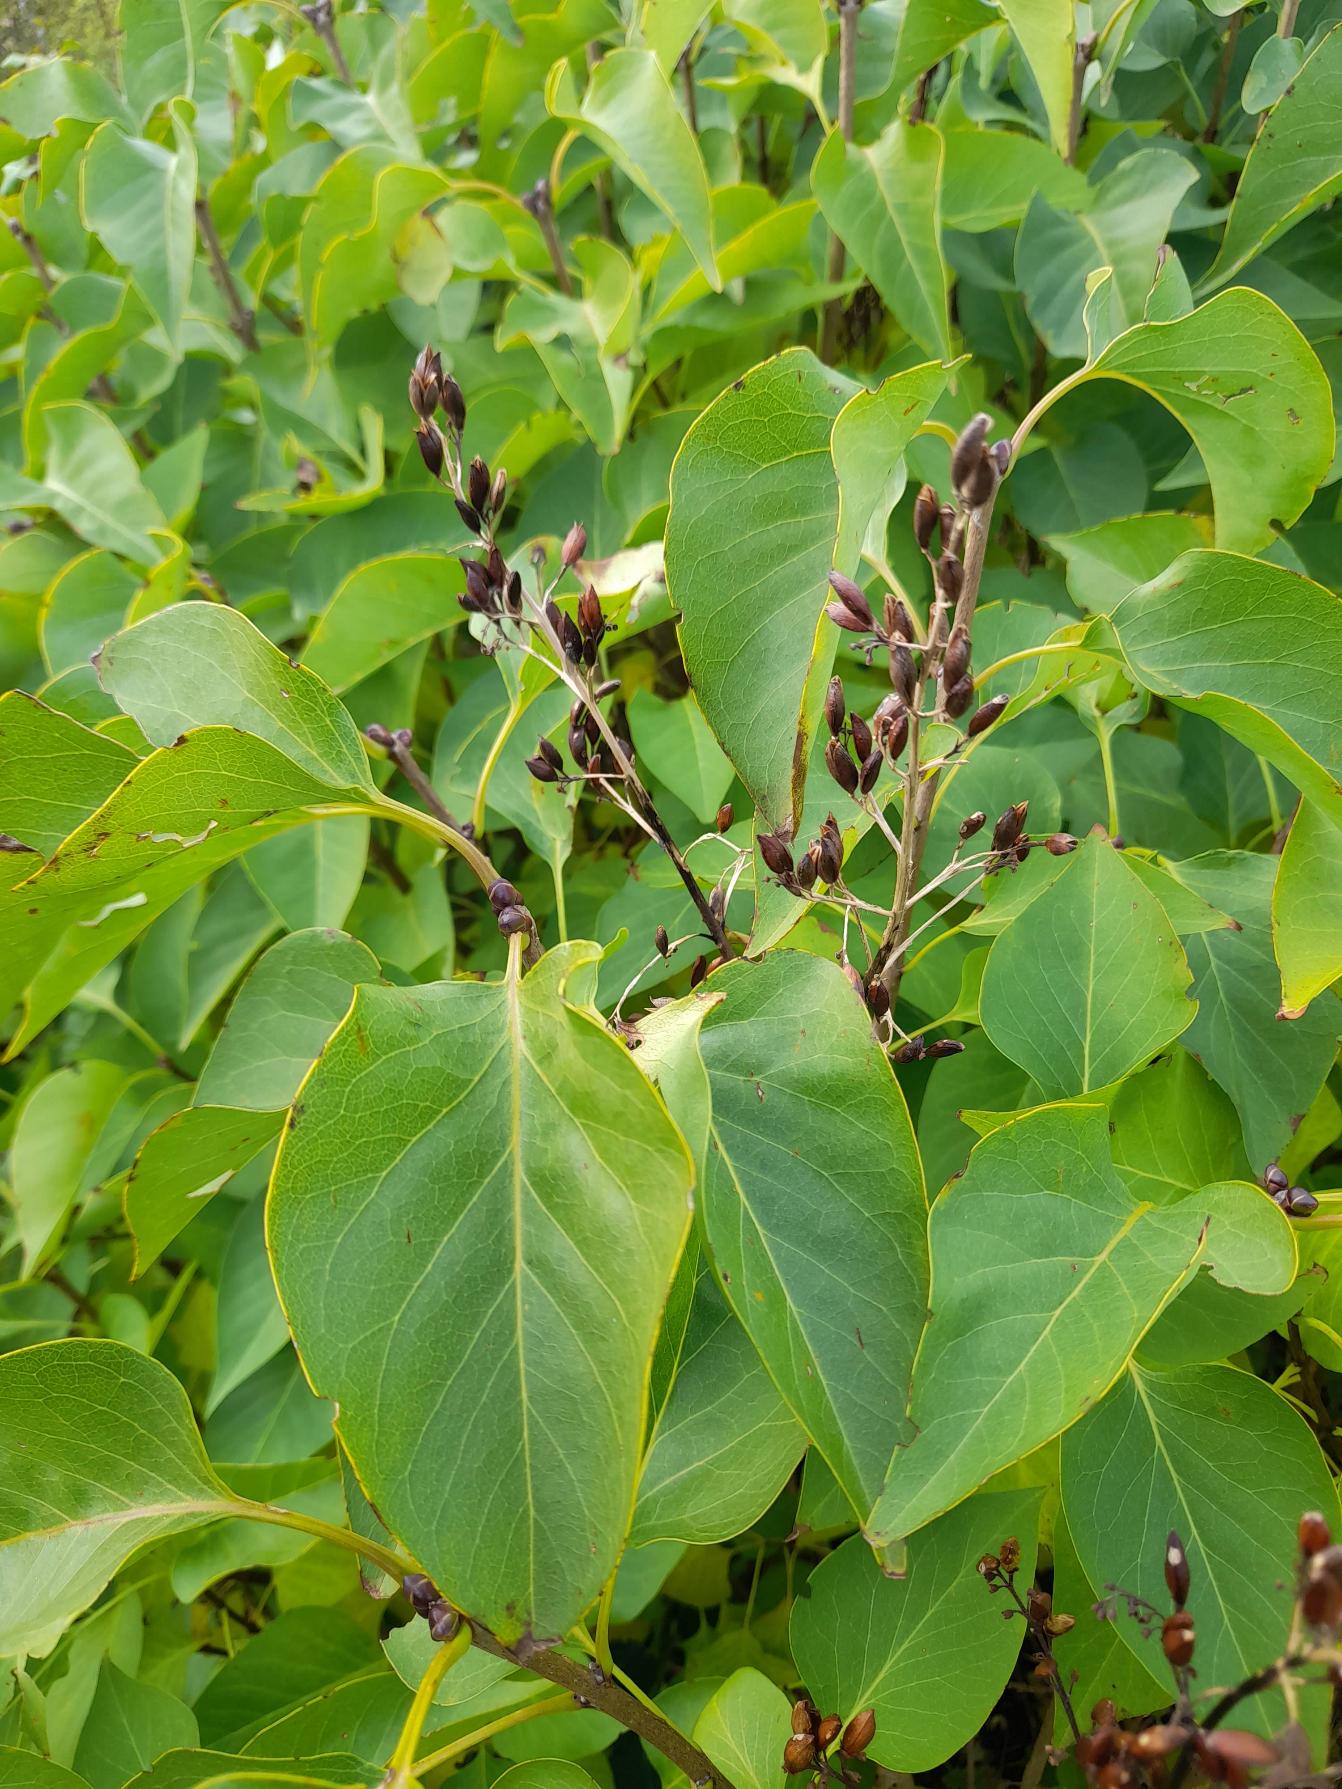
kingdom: Plantae
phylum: Tracheophyta
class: Magnoliopsida
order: Lamiales
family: Oleaceae
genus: Syringa
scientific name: Syringa vulgaris
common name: Syren
